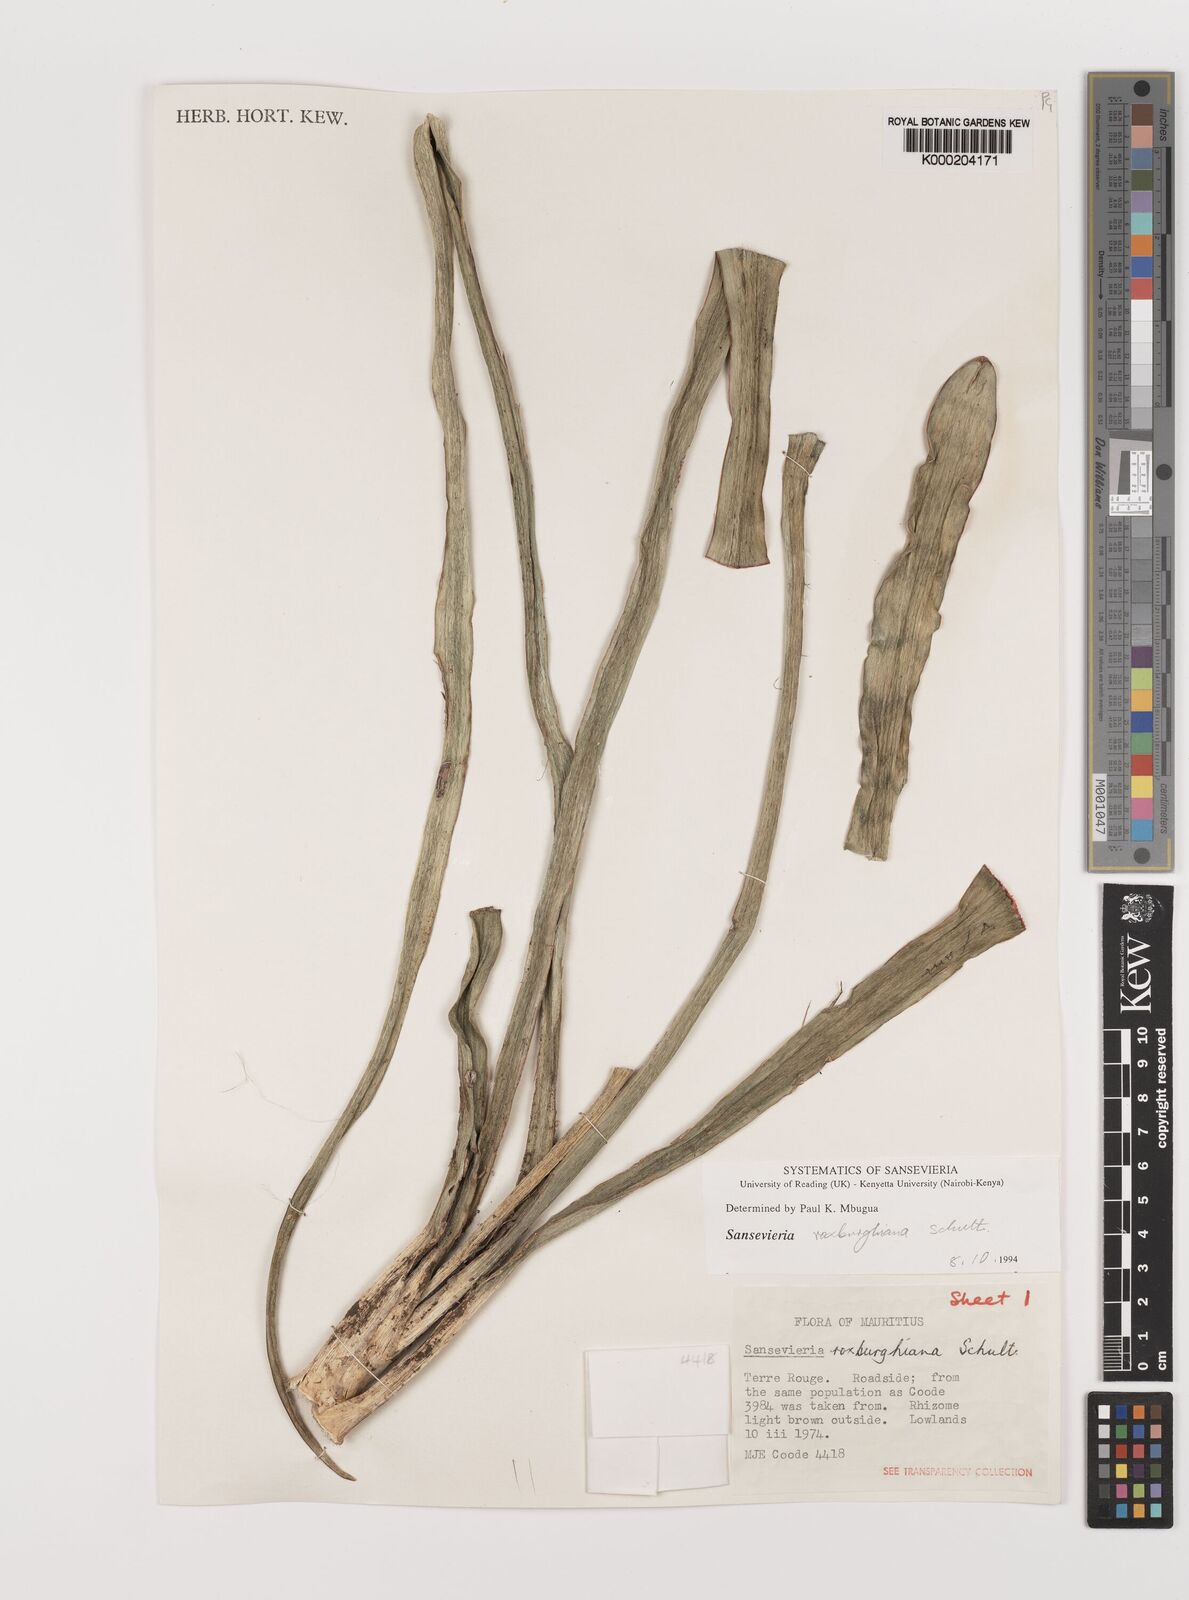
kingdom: Plantae
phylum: Tracheophyta
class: Liliopsida
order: Asparagales
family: Asparagaceae
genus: Dracaena
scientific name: Dracaena
